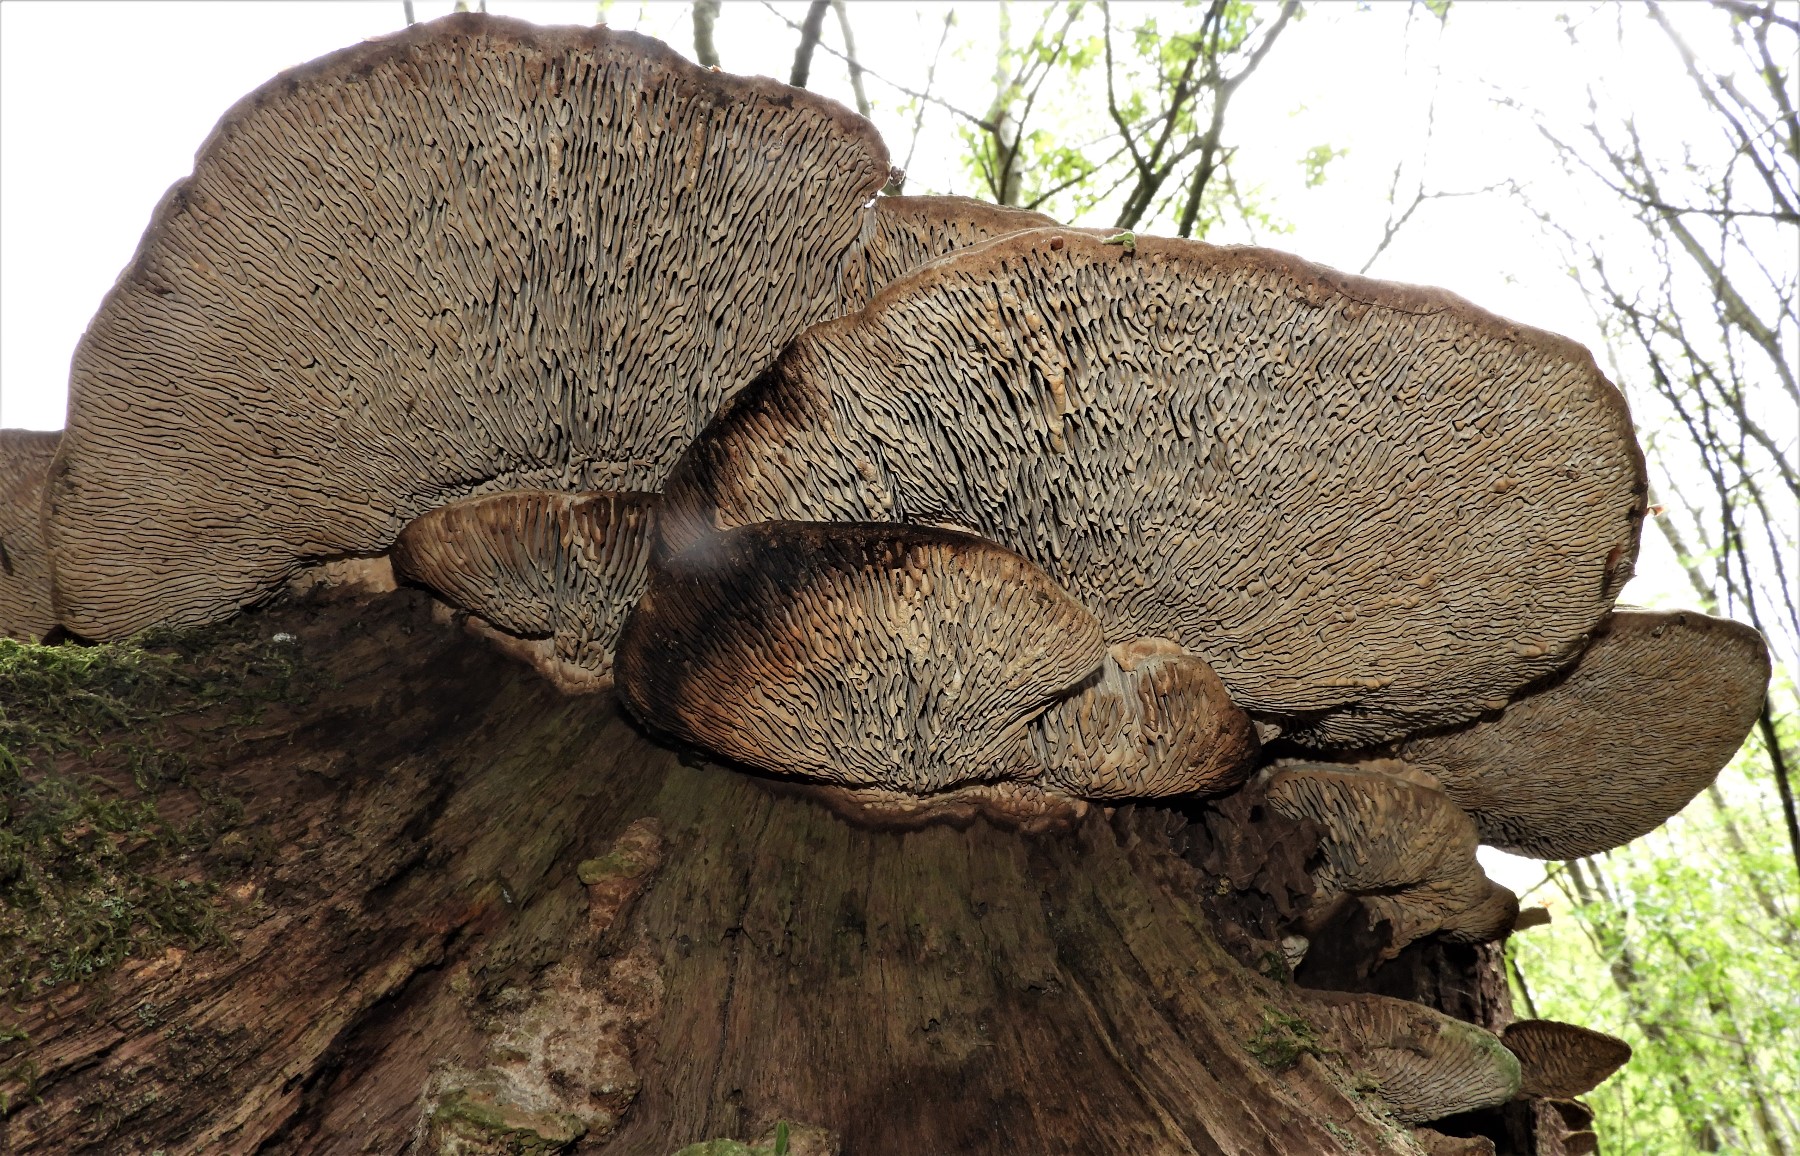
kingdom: Fungi
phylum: Basidiomycota
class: Agaricomycetes
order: Polyporales
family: Fomitopsidaceae
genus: Daedalea
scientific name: Daedalea quercina
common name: ege-labyrintsvamp
